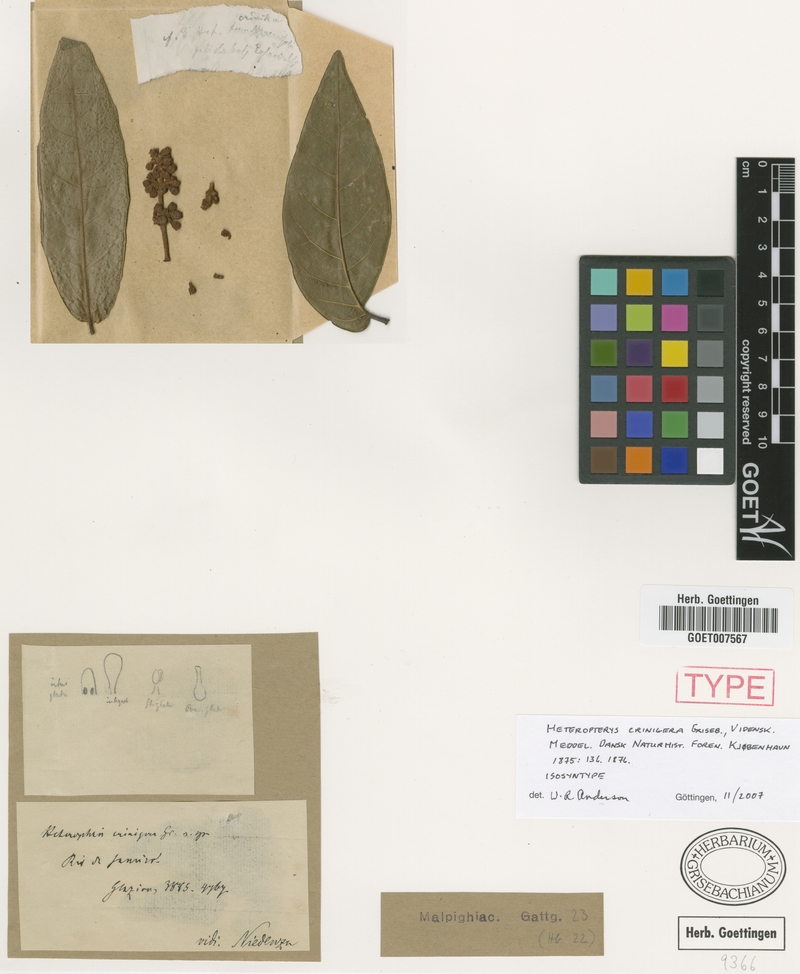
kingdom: Plantae
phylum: Tracheophyta
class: Magnoliopsida
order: Malpighiales
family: Malpighiaceae
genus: Heteropterys
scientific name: Heteropterys crinigera
